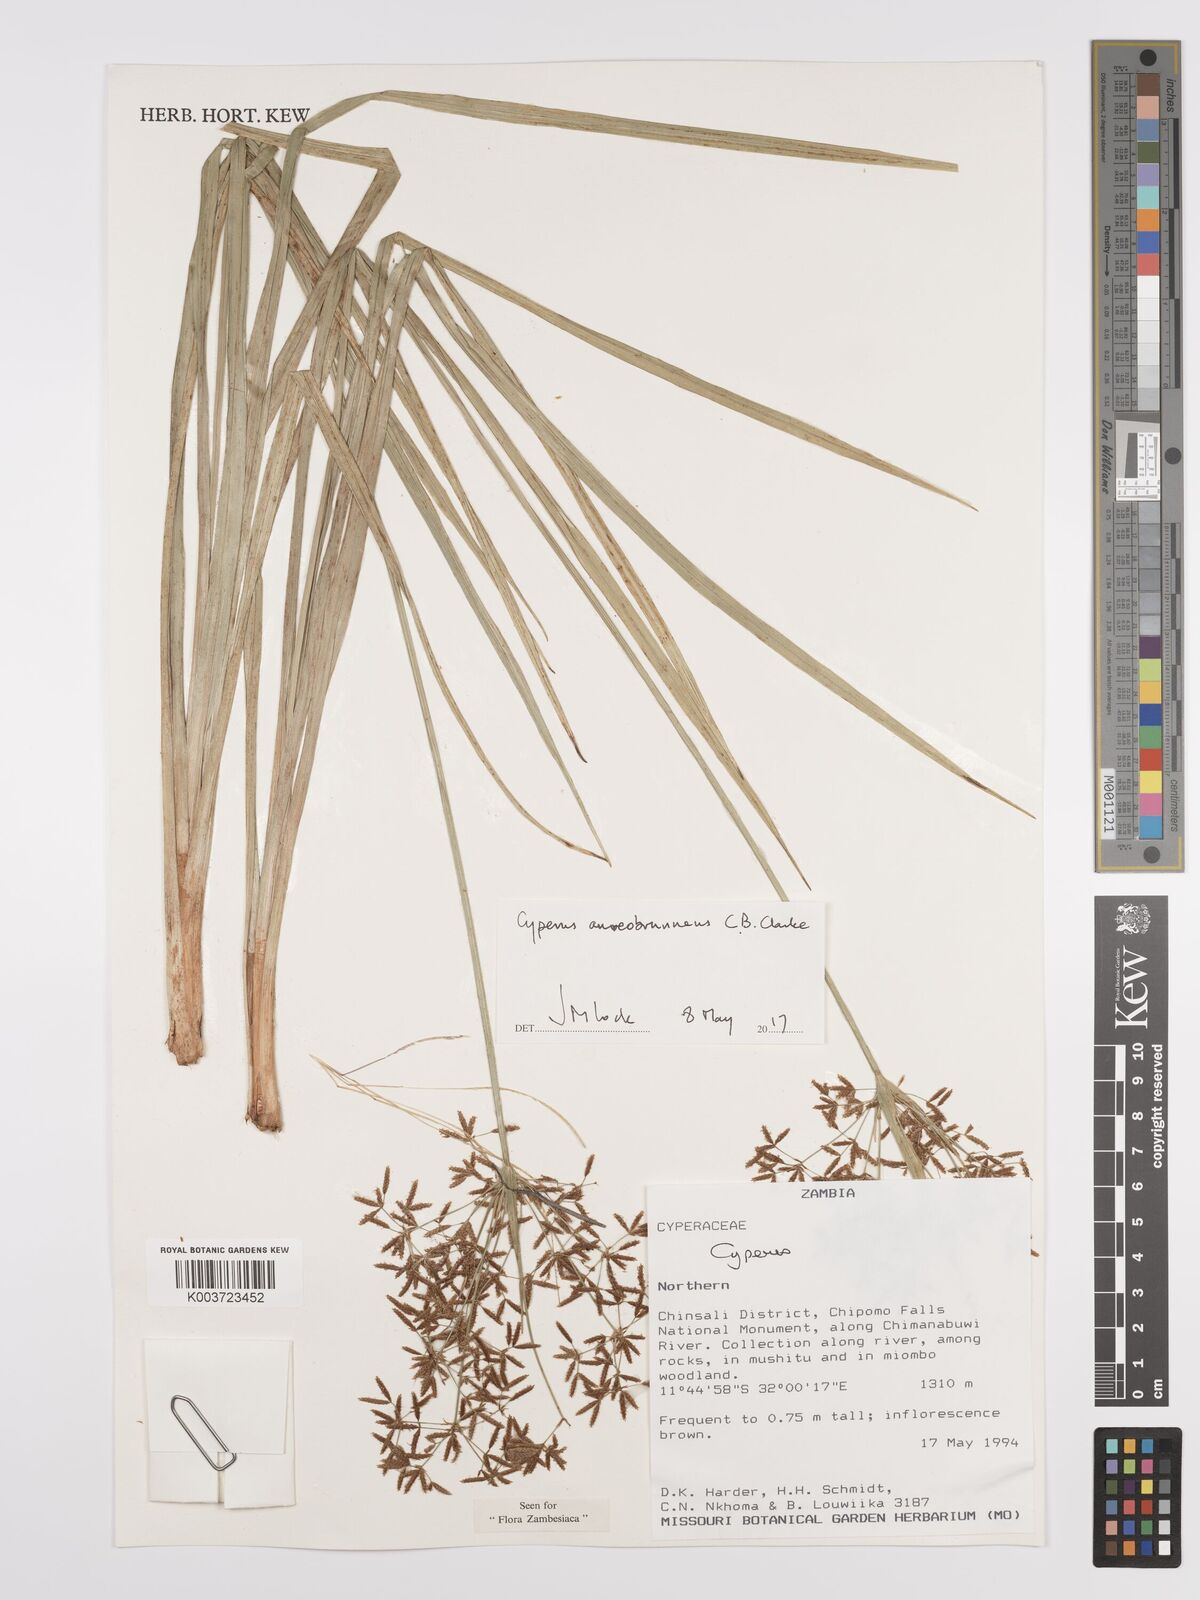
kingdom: Plantae
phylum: Tracheophyta
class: Liliopsida
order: Poales
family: Cyperaceae
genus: Cyperus
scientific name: Cyperus aureobrunneus
